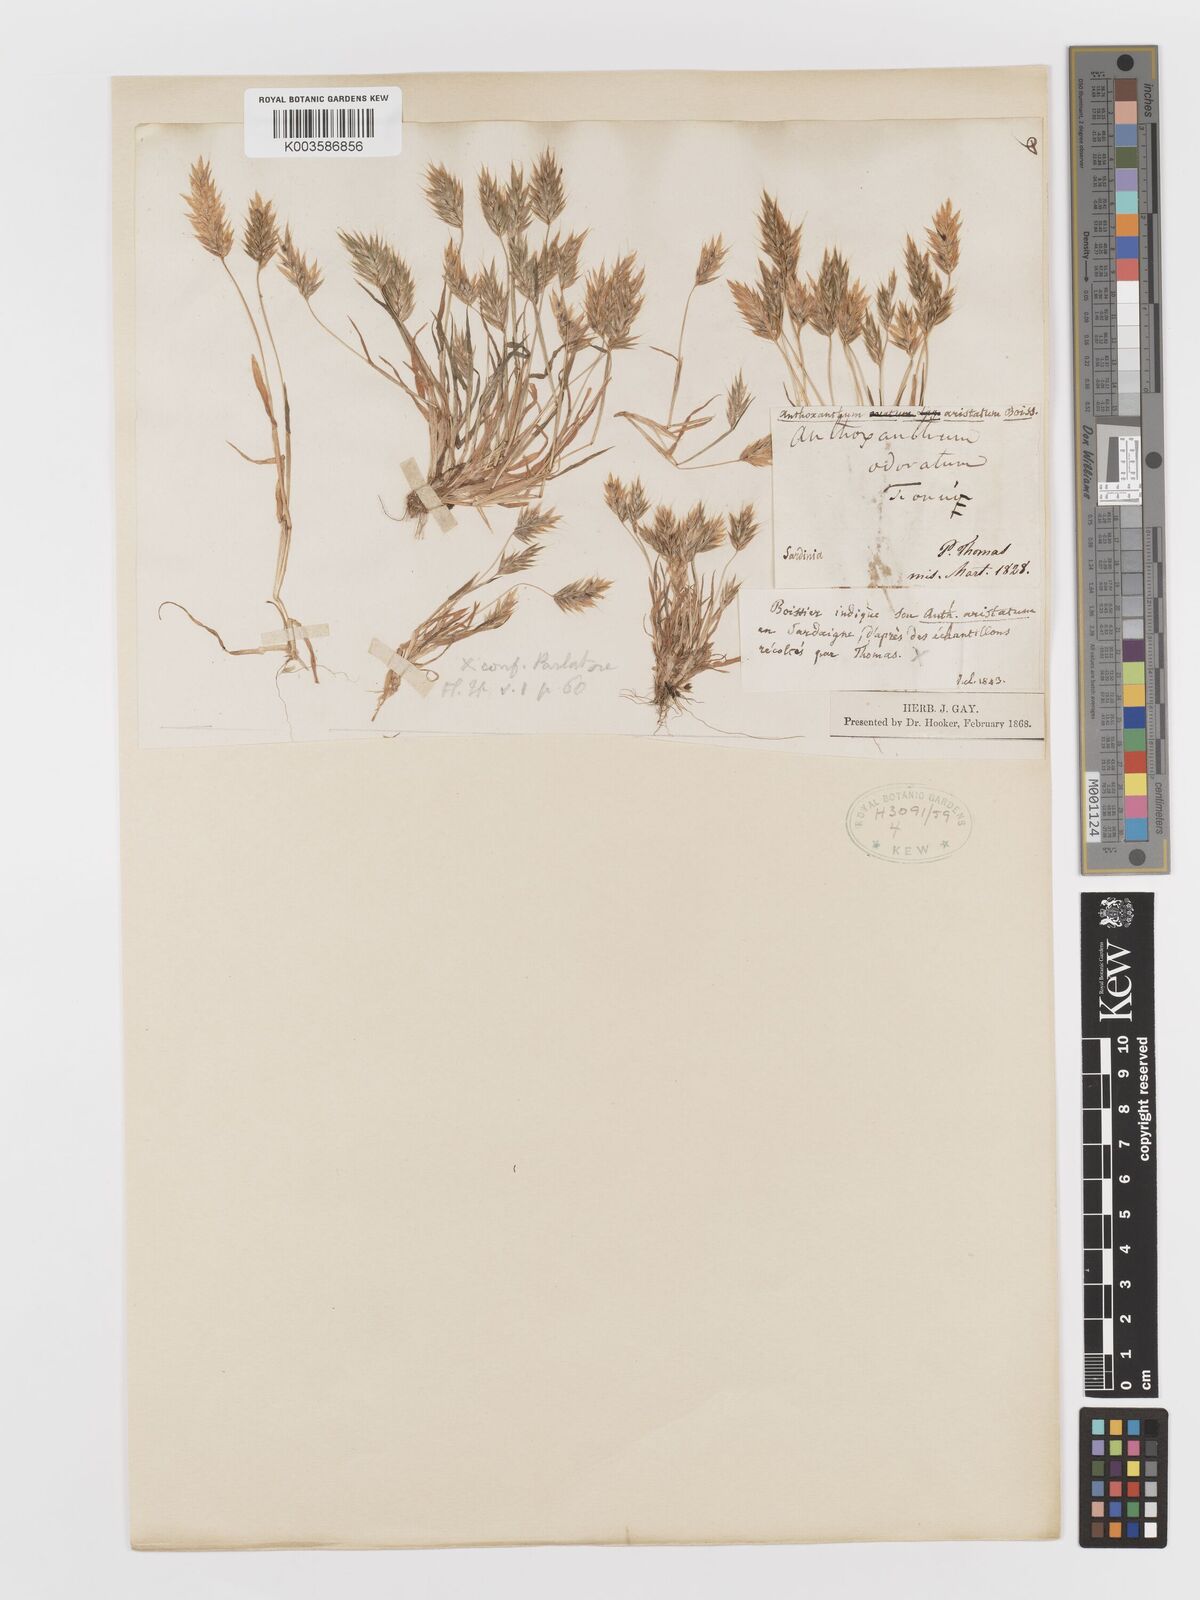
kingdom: Plantae
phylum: Tracheophyta
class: Liliopsida
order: Poales
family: Poaceae
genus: Anthoxanthum
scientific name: Anthoxanthum
